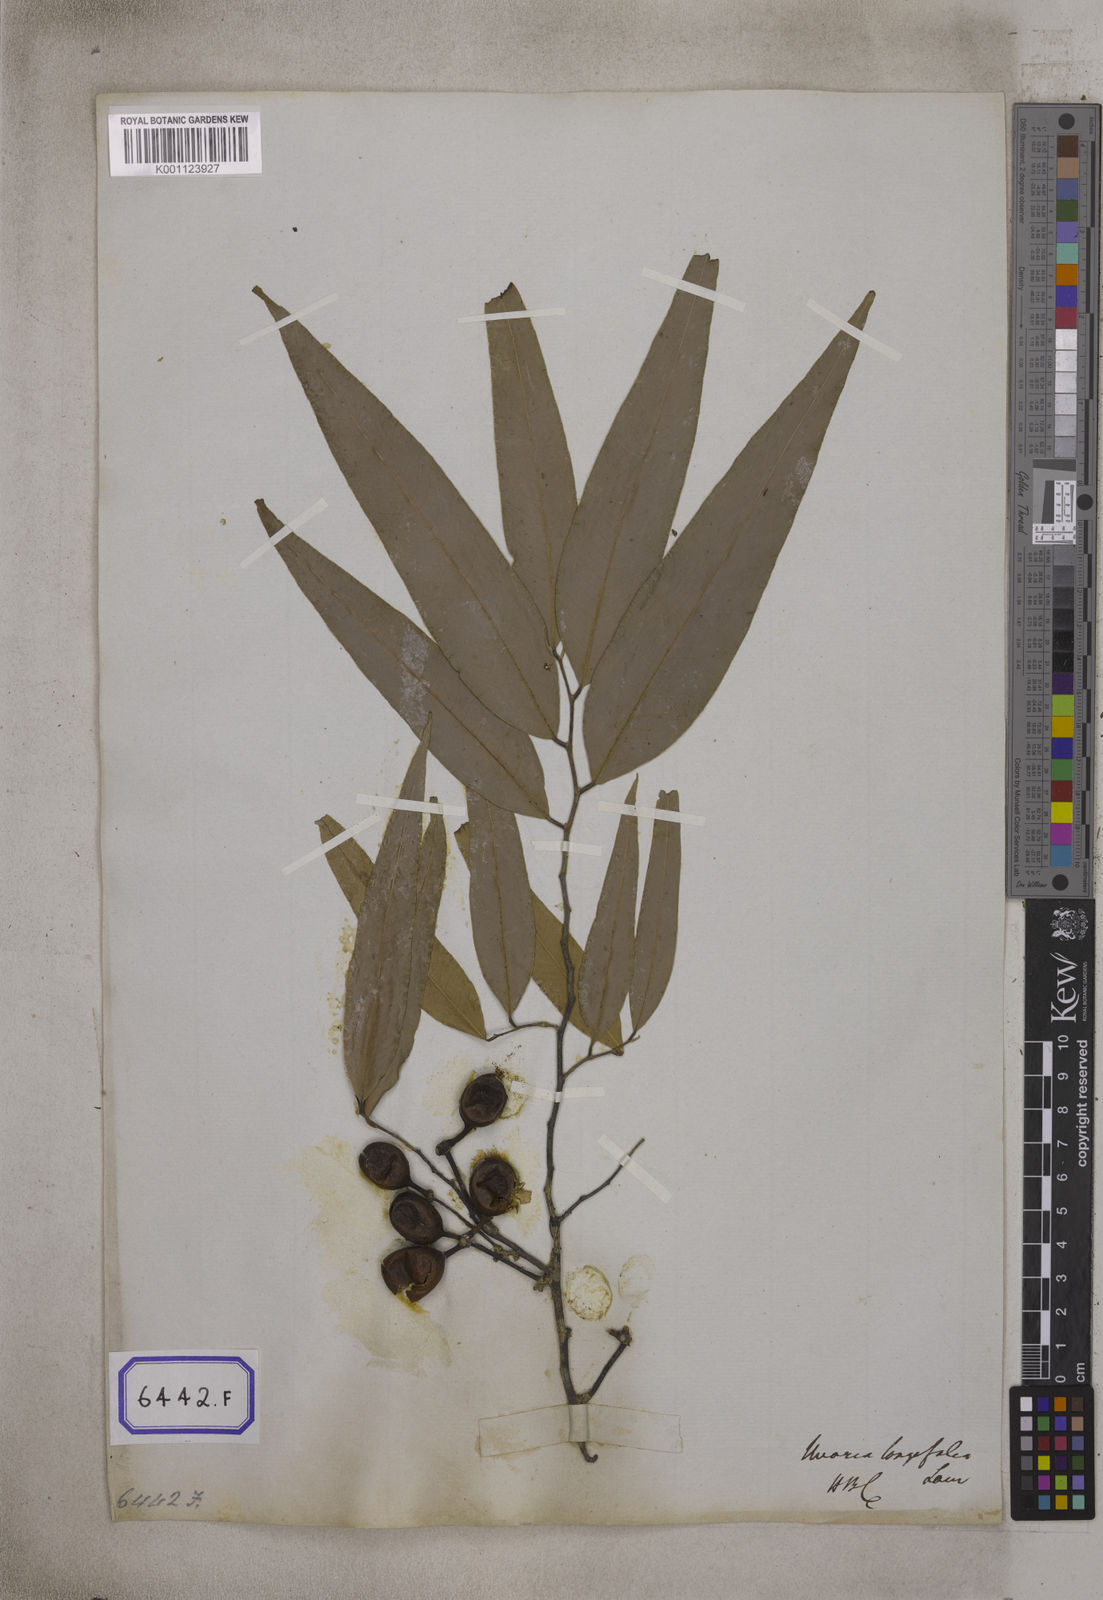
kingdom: Plantae
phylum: Tracheophyta
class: Magnoliopsida
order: Magnoliales
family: Annonaceae
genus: Polyalthia
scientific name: Polyalthia longifolia
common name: Cemetery-tree
